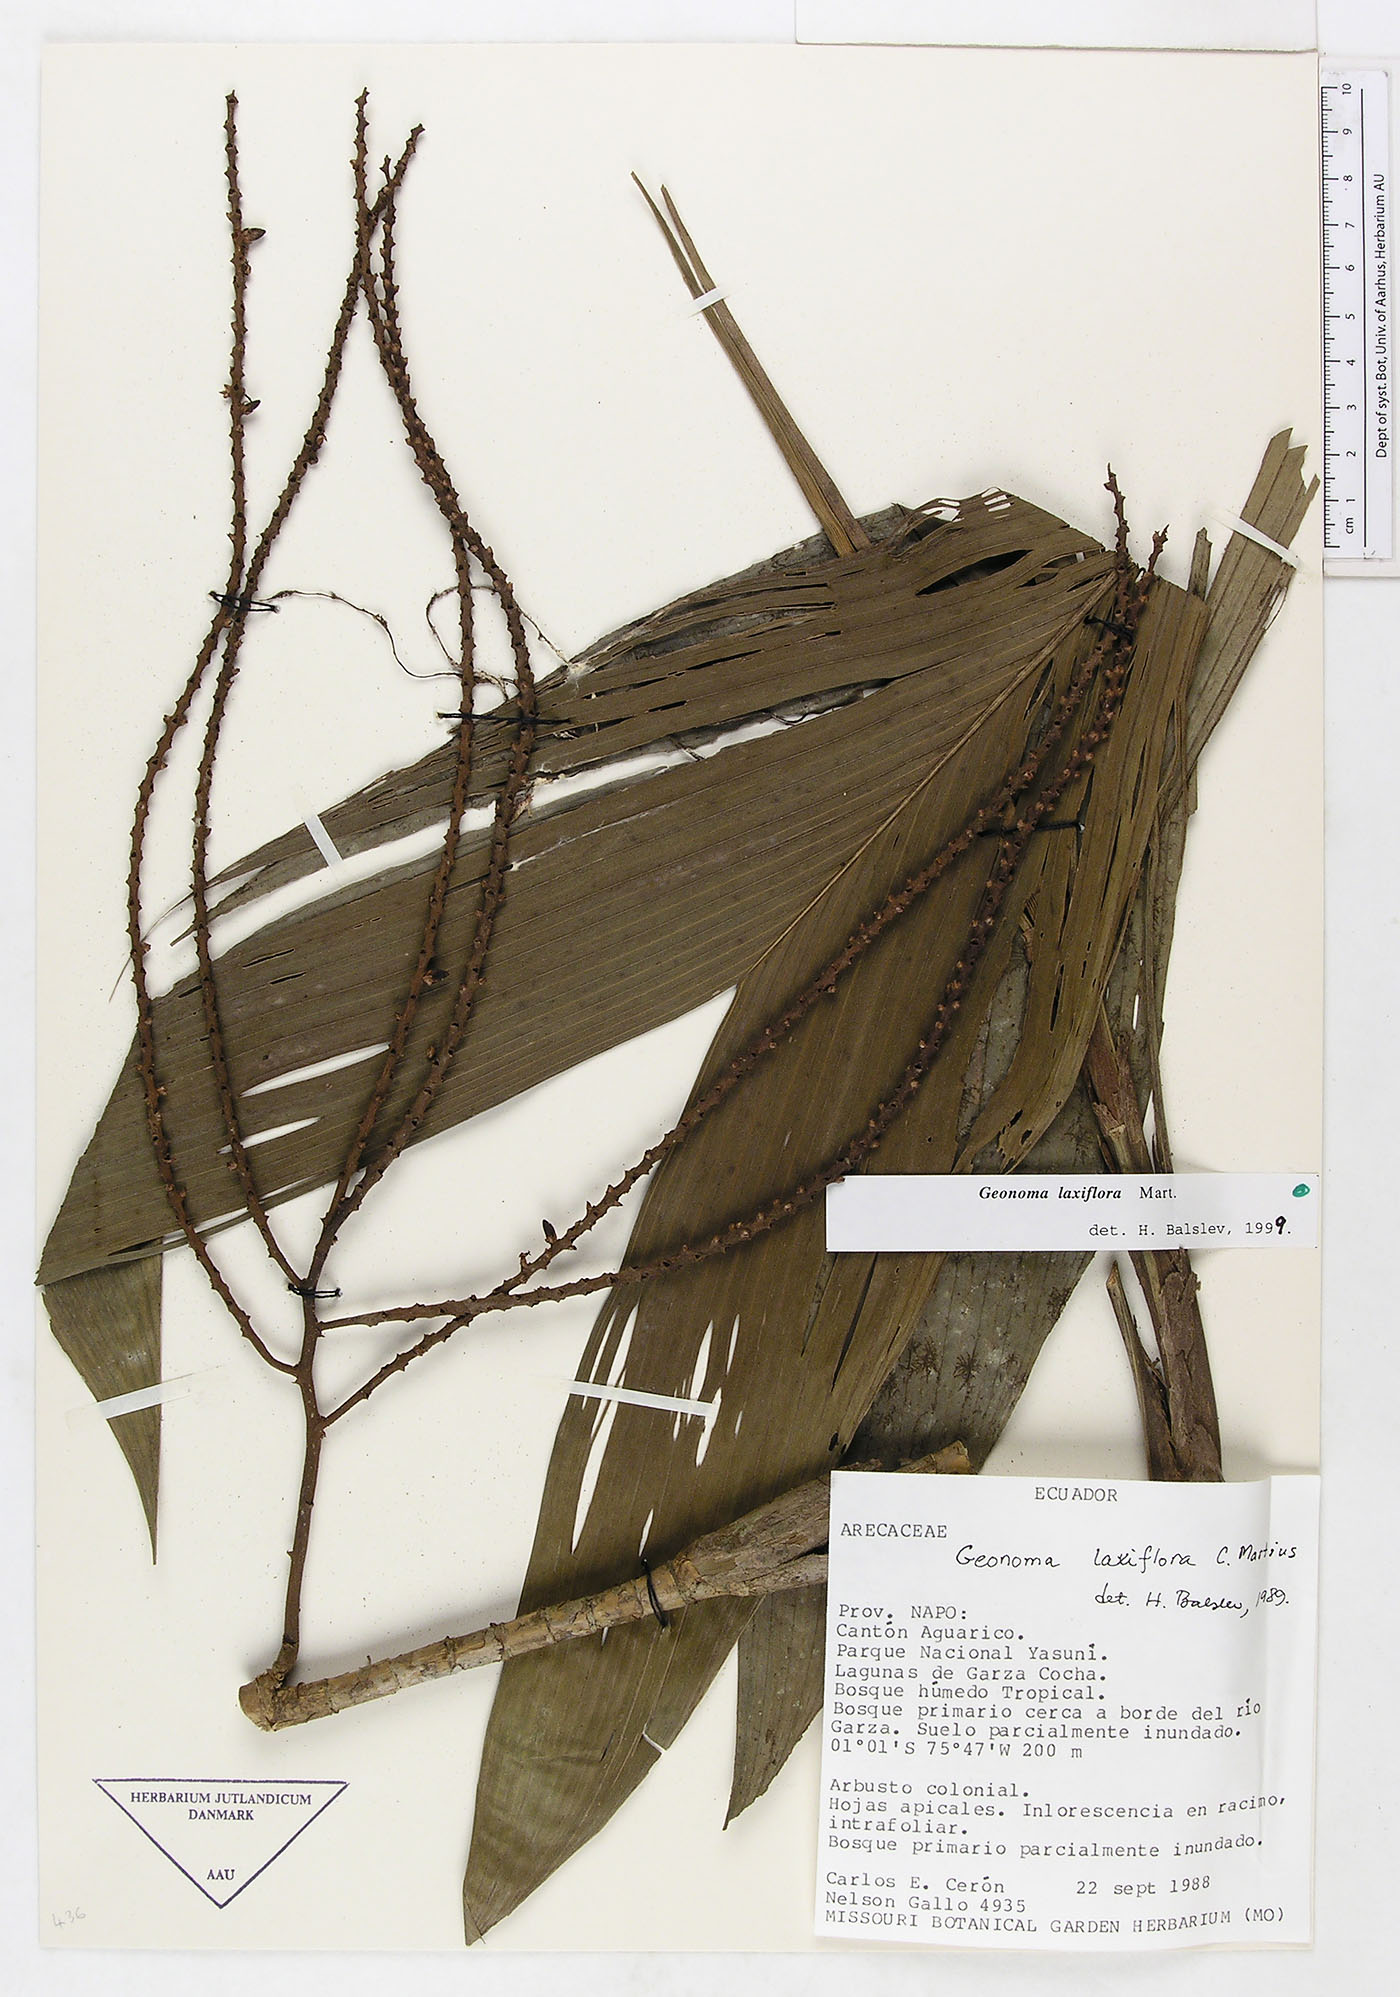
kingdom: Plantae
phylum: Tracheophyta
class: Liliopsida
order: Arecales
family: Arecaceae
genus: Geonoma
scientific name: Geonoma laxiflora
